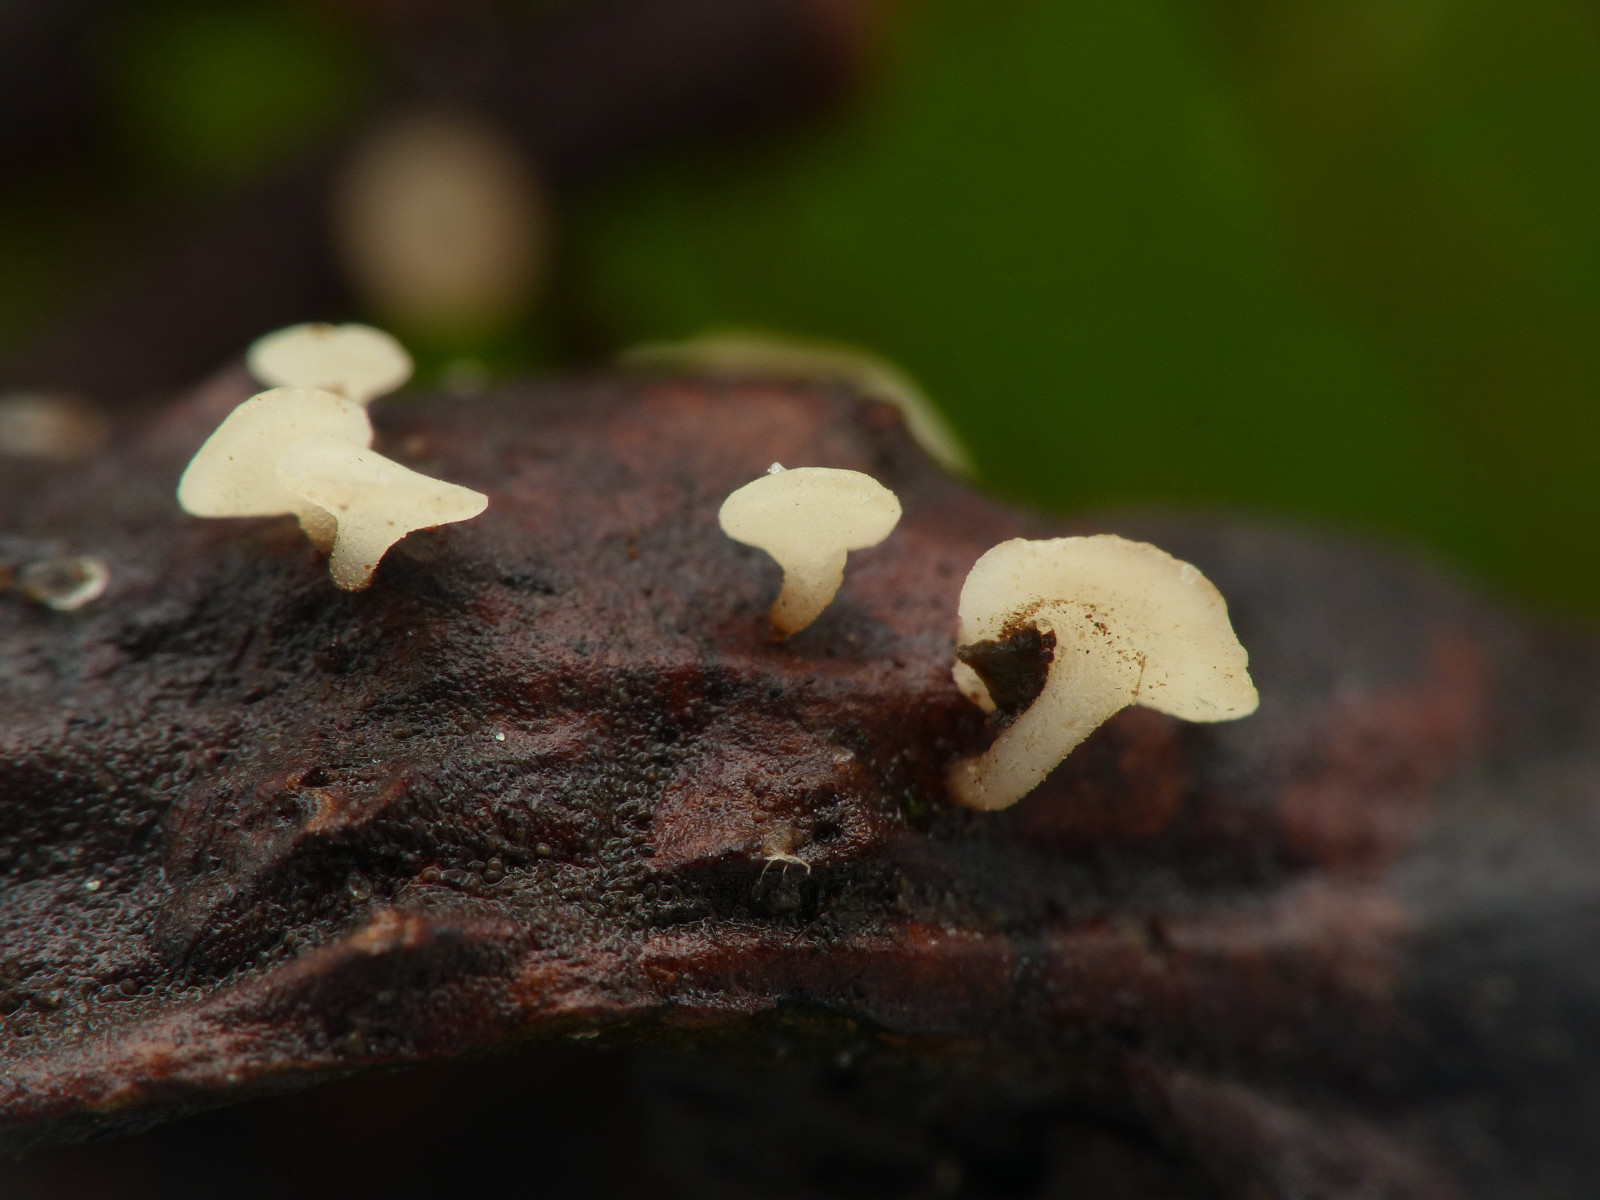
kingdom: Fungi
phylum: Ascomycota
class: Leotiomycetes
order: Helotiales
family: Helotiaceae
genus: Hymenoscyphus
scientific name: Hymenoscyphus fagineus
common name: vellugtende stilkskive
